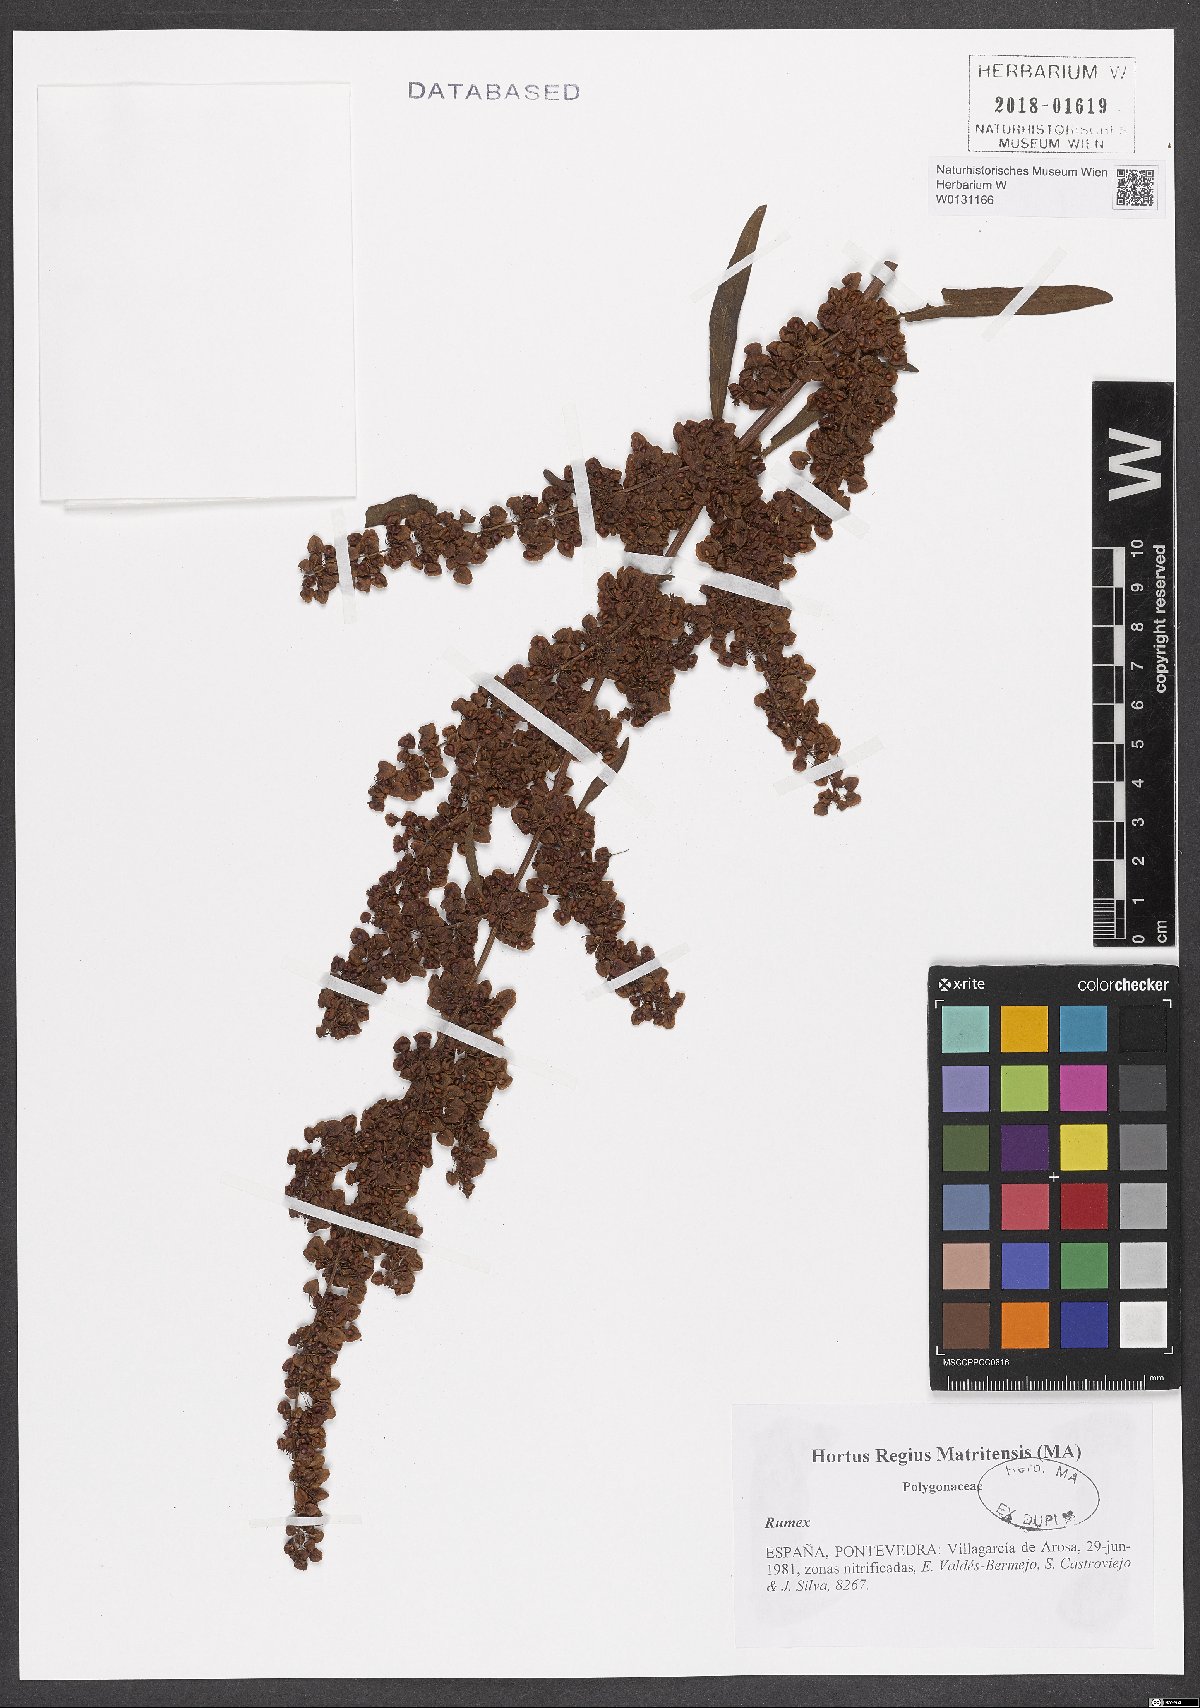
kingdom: Plantae
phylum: Tracheophyta
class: Magnoliopsida
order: Caryophyllales
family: Polygonaceae
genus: Rumex
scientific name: Rumex
